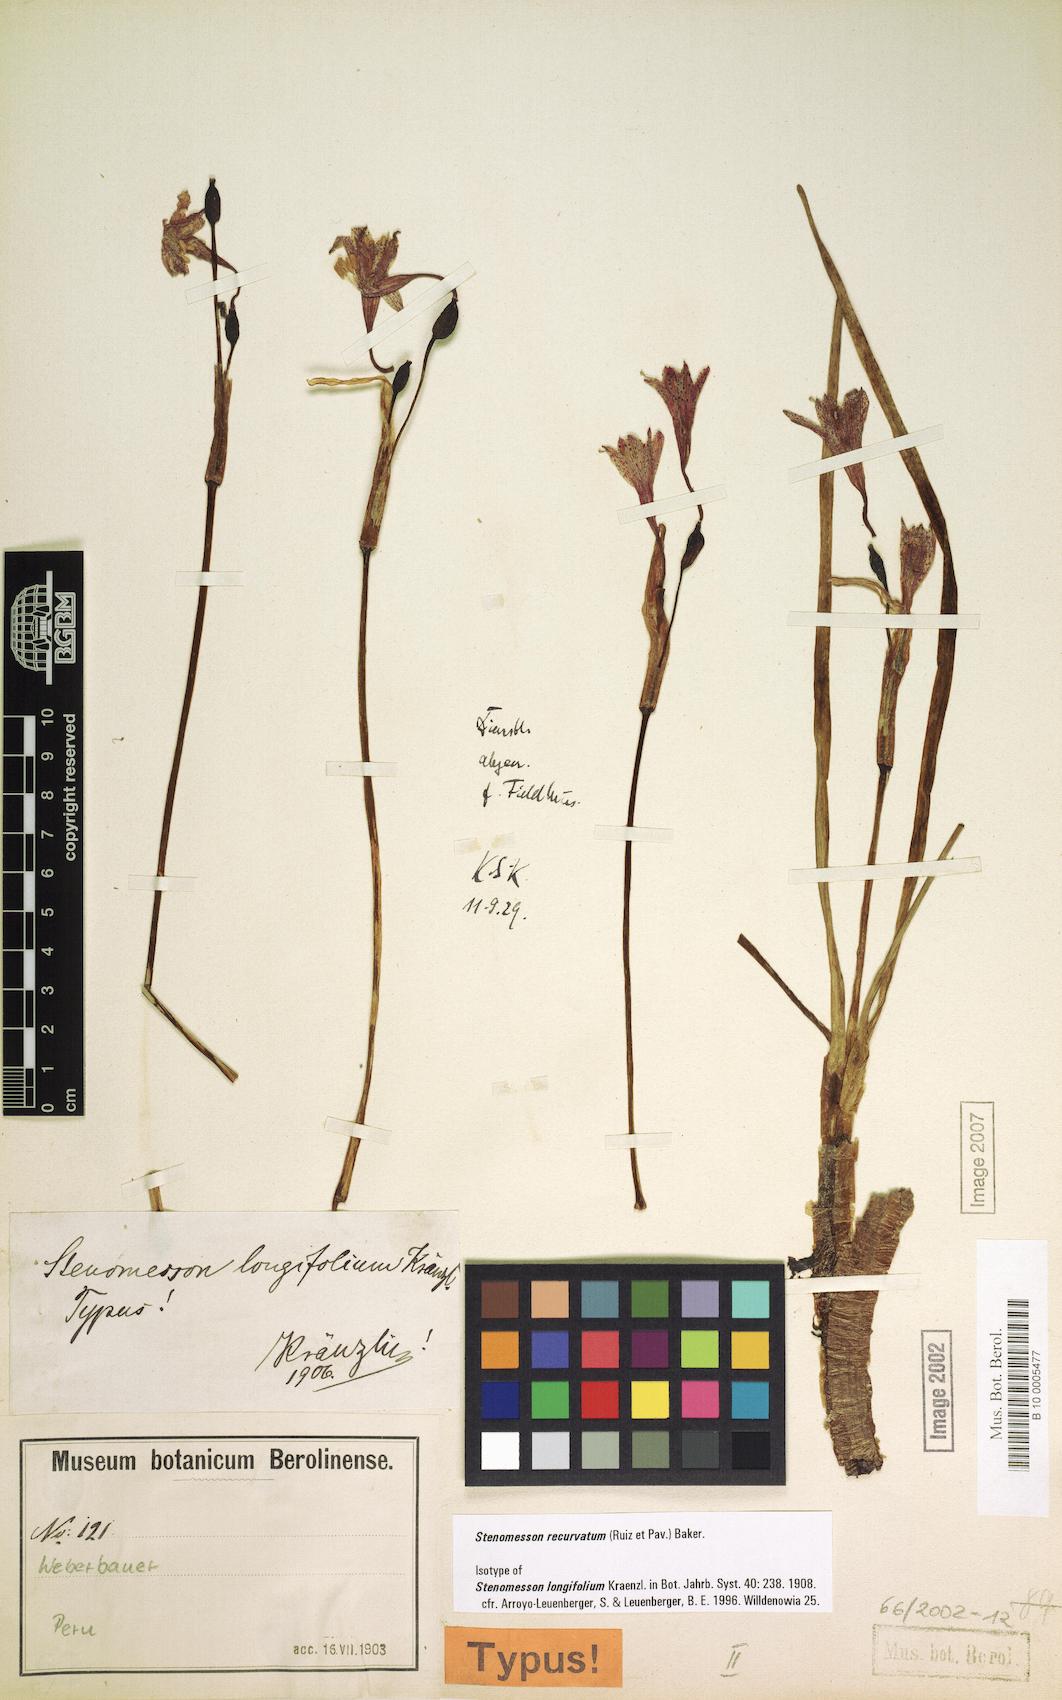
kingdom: Plantae
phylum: Tracheophyta
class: Liliopsida
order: Asparagales
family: Amaryllidaceae
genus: Clinanthus
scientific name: Clinanthus recurvatus
